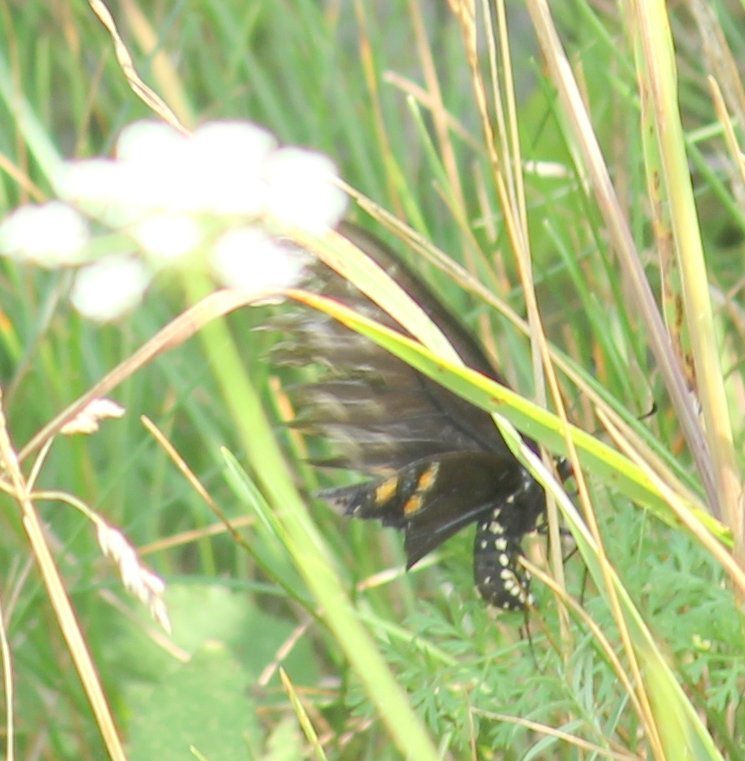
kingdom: Animalia
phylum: Arthropoda
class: Insecta
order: Lepidoptera
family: Papilionidae
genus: Papilio
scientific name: Papilio polyxenes
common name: Black Swallowtail
